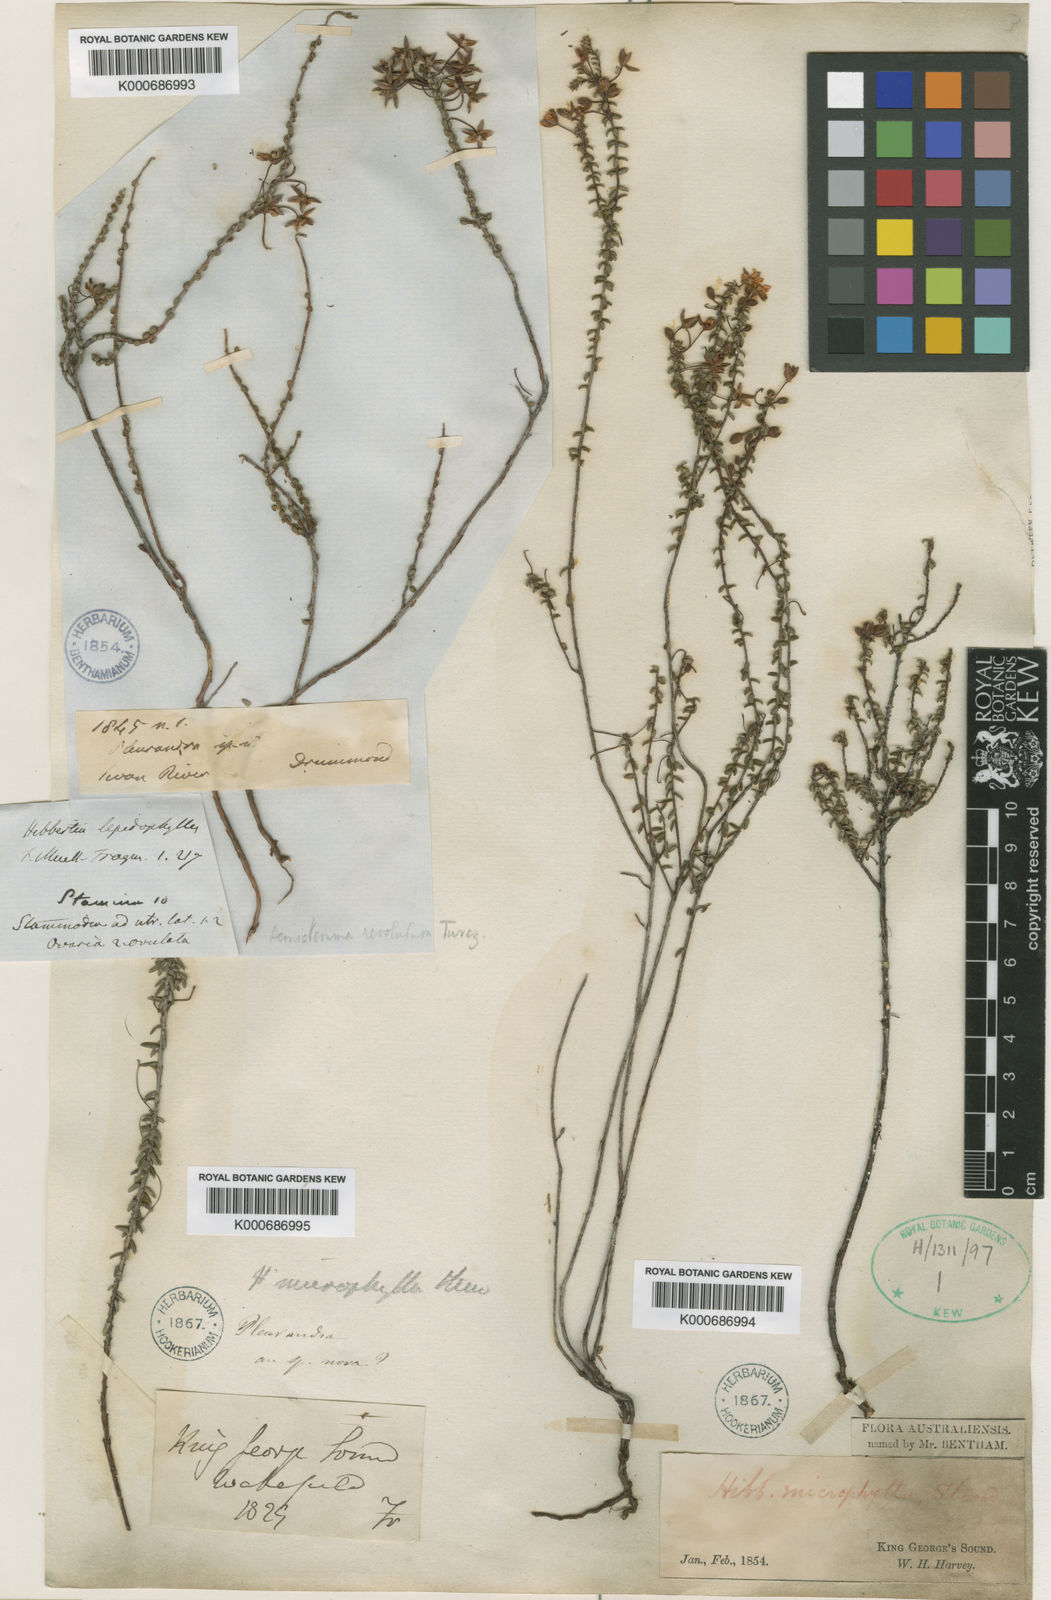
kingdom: Plantae
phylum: Tracheophyta
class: Magnoliopsida
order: Dilleniales
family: Dilleniaceae
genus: Hibbertia
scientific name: Hibbertia microphylla
